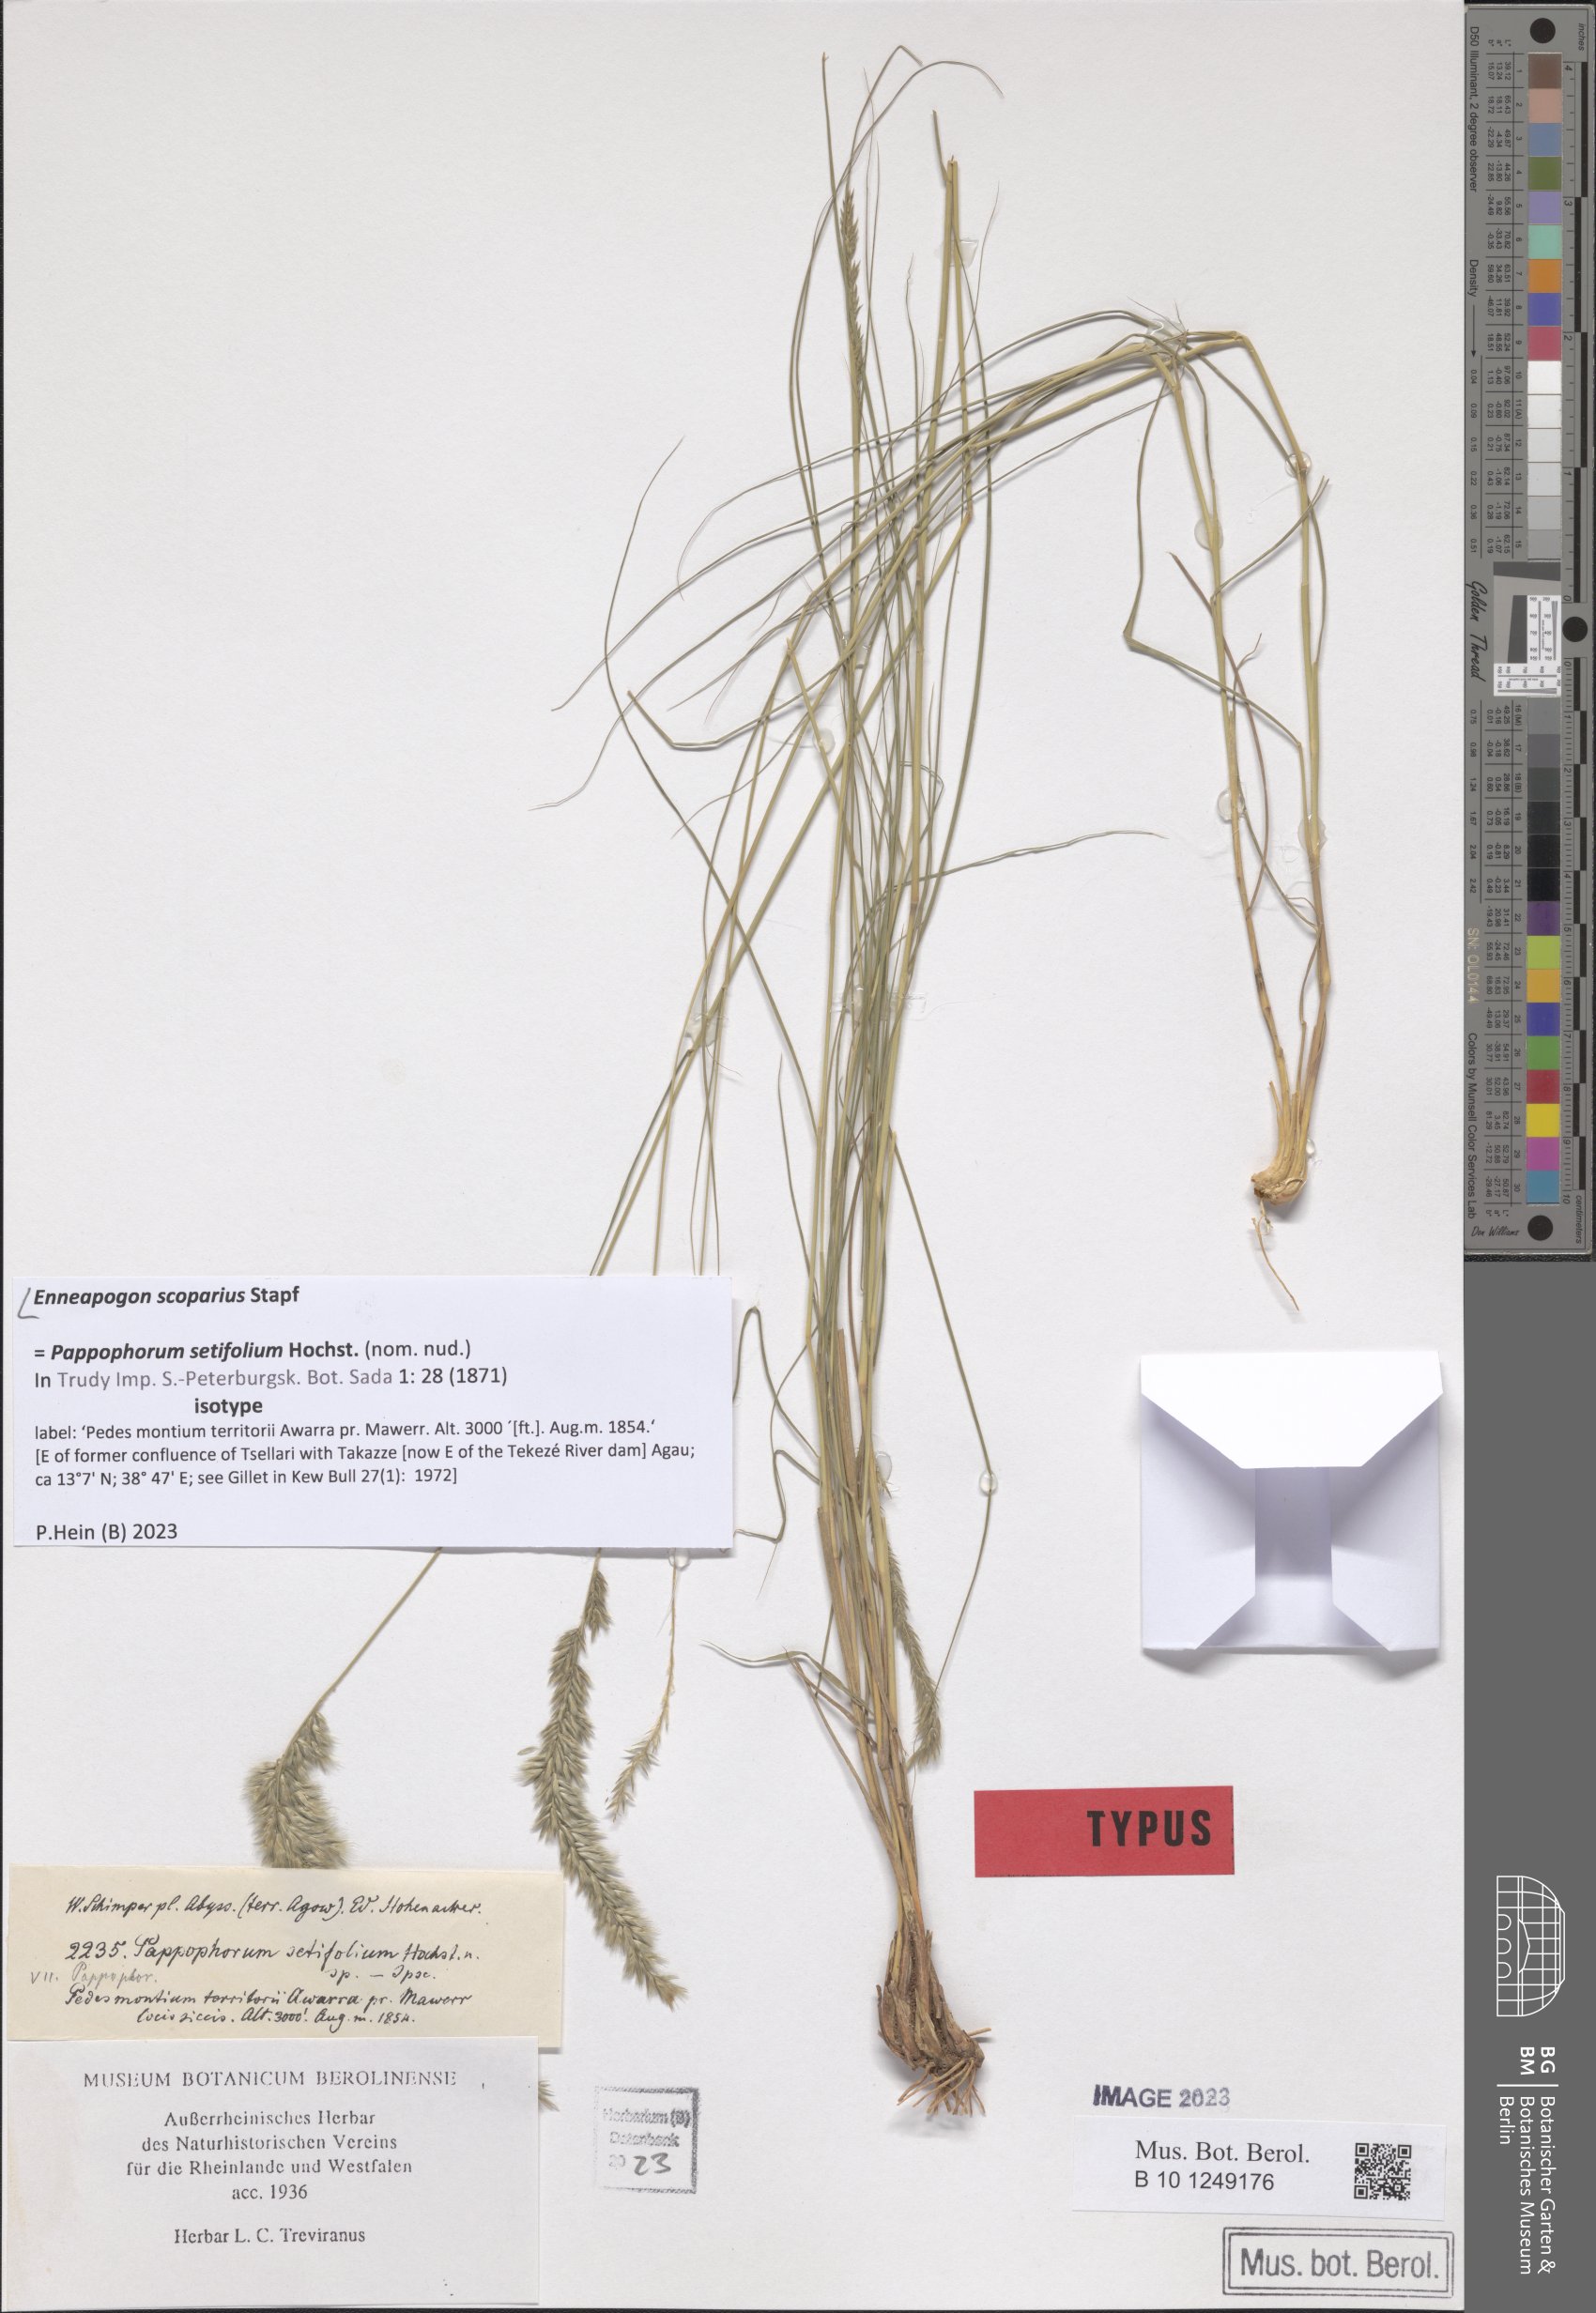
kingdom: Plantae
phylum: Tracheophyta
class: Liliopsida
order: Poales
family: Poaceae
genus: Enneapogon
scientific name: Enneapogon scoparius
